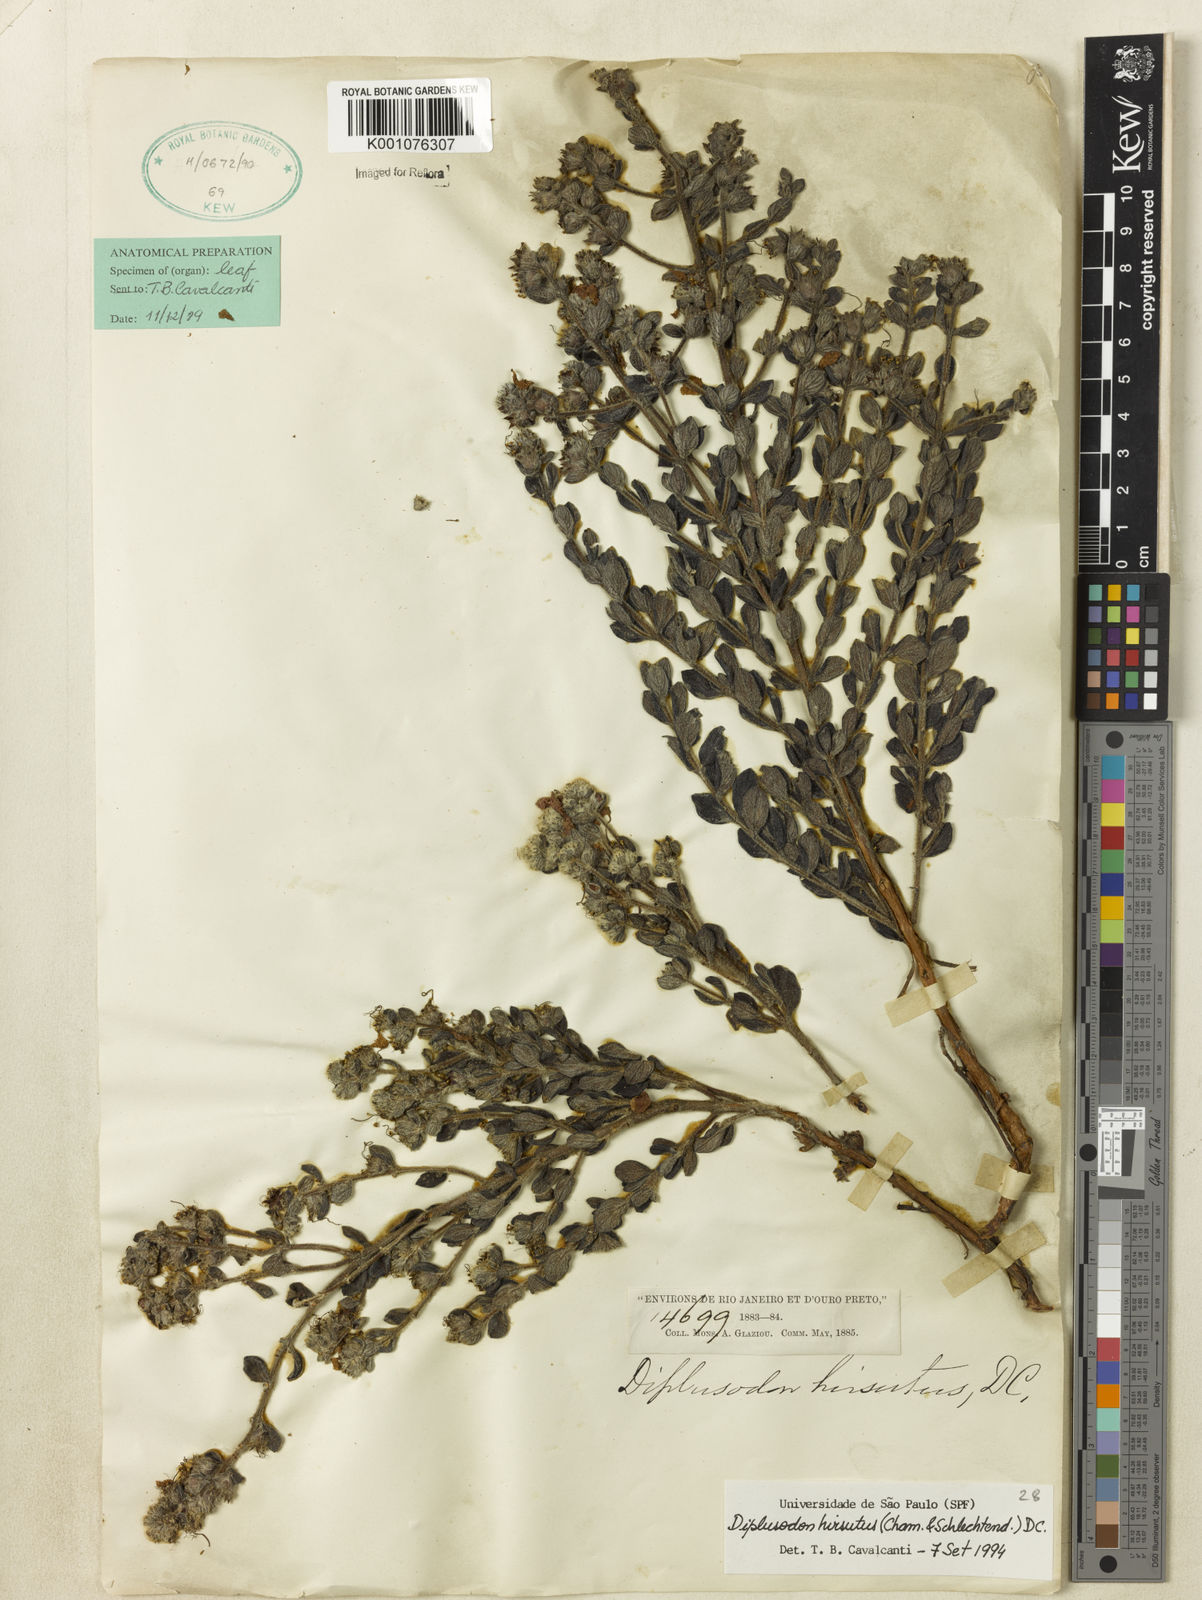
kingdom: Plantae
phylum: Tracheophyta
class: Magnoliopsida
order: Myrtales
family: Lythraceae
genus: Diplusodon
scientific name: Diplusodon hirsutus
